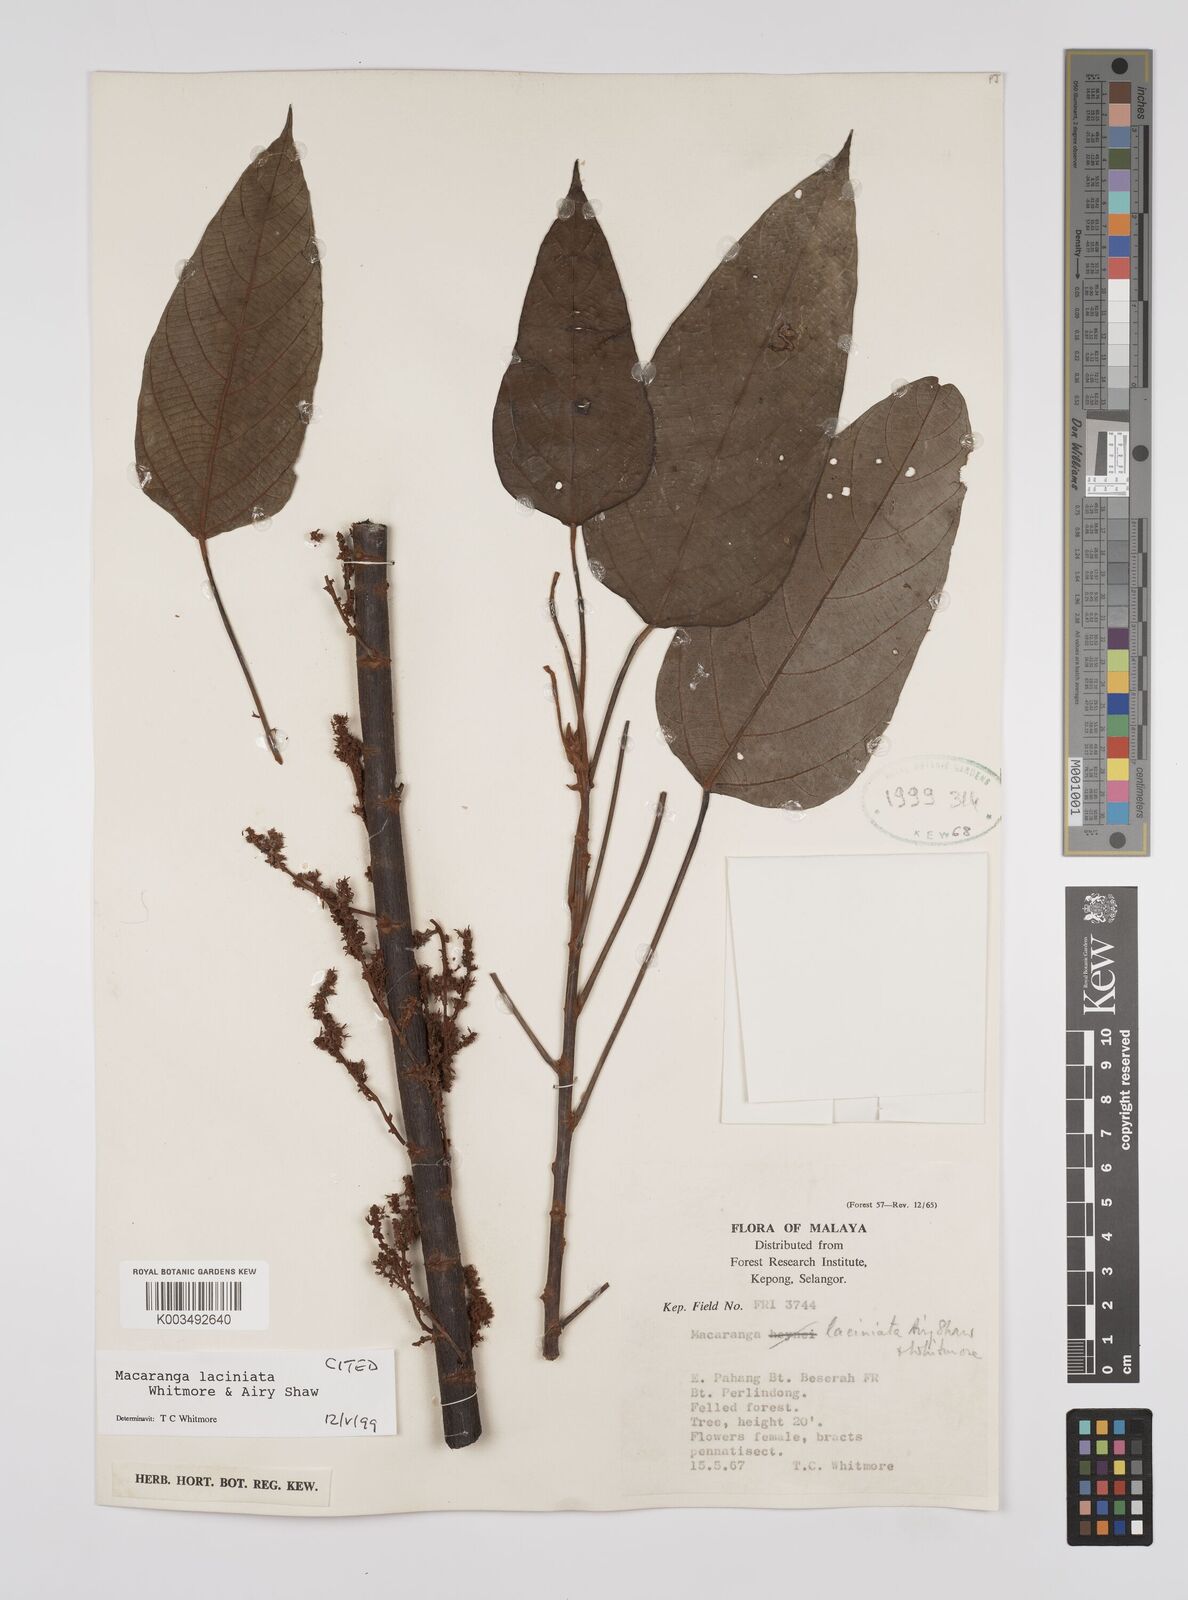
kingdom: Plantae
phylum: Tracheophyta
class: Magnoliopsida
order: Malpighiales
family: Euphorbiaceae
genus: Macaranga
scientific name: Macaranga laciniata
